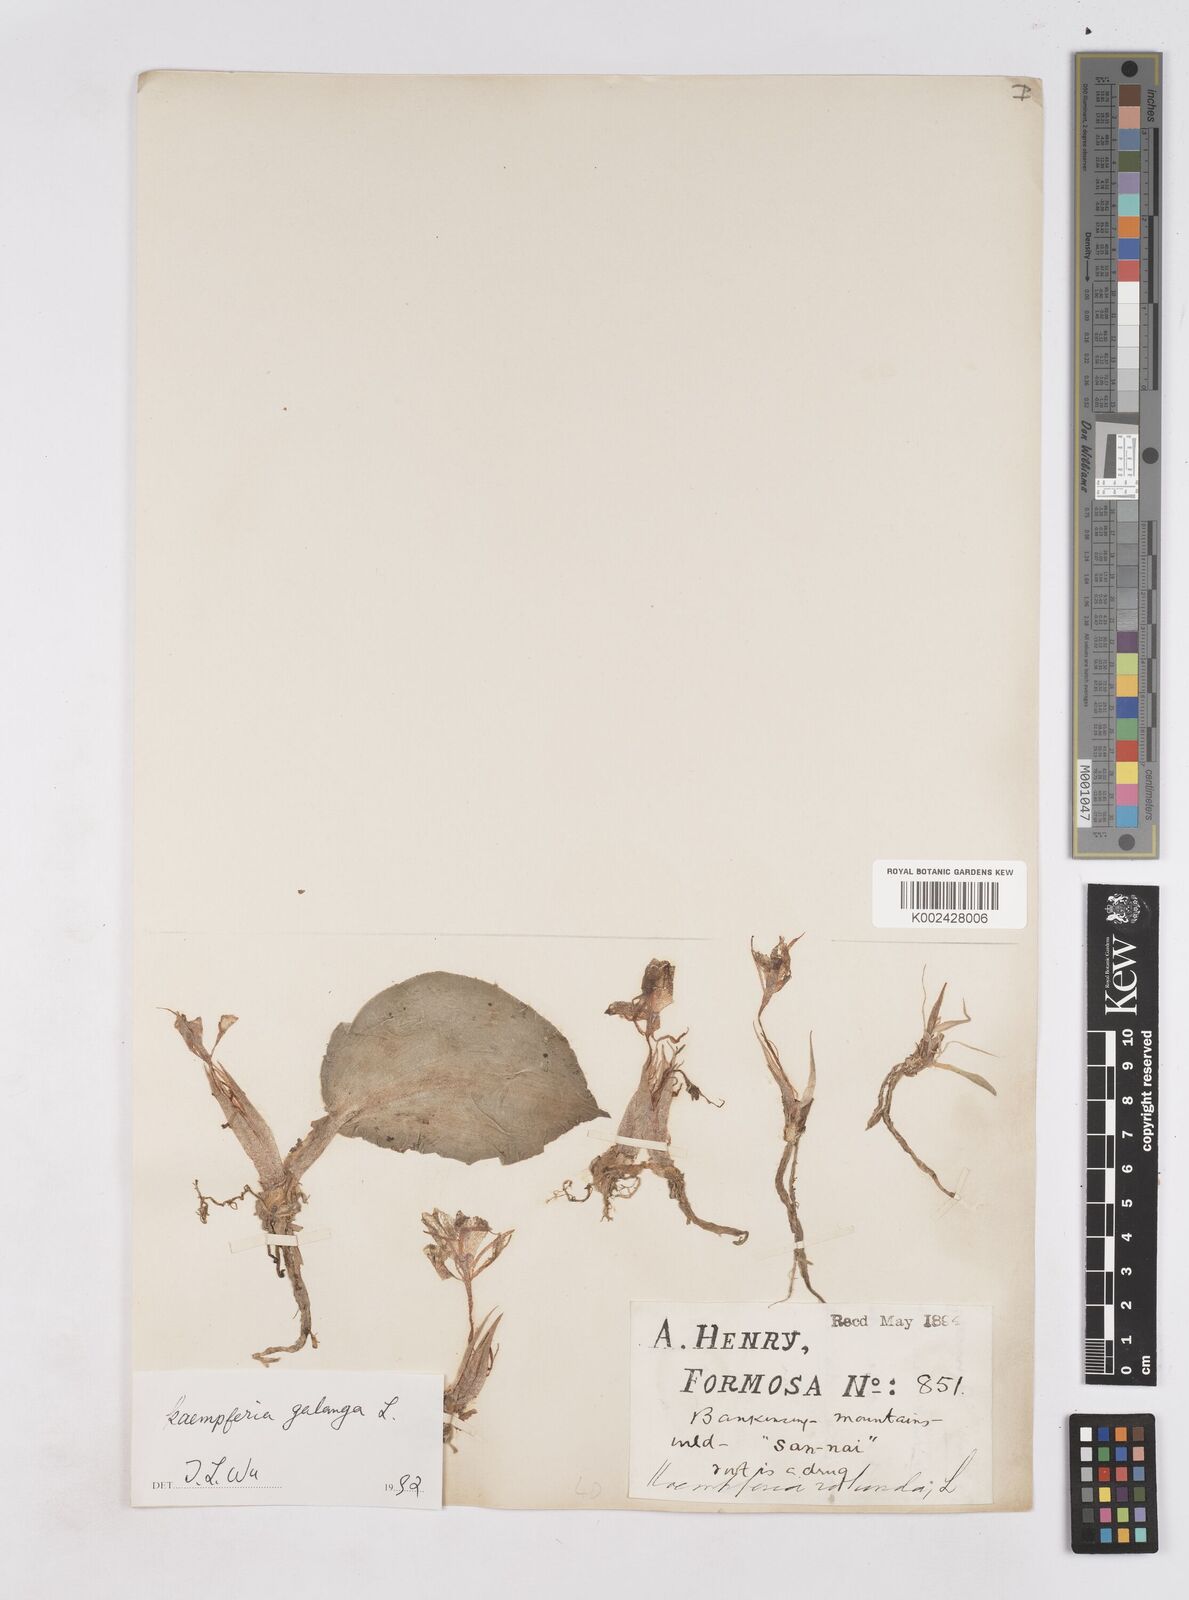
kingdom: Plantae
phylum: Tracheophyta
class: Liliopsida
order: Zingiberales
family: Zingiberaceae
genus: Kaempferia
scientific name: Kaempferia galanga
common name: Aromatic ginger
